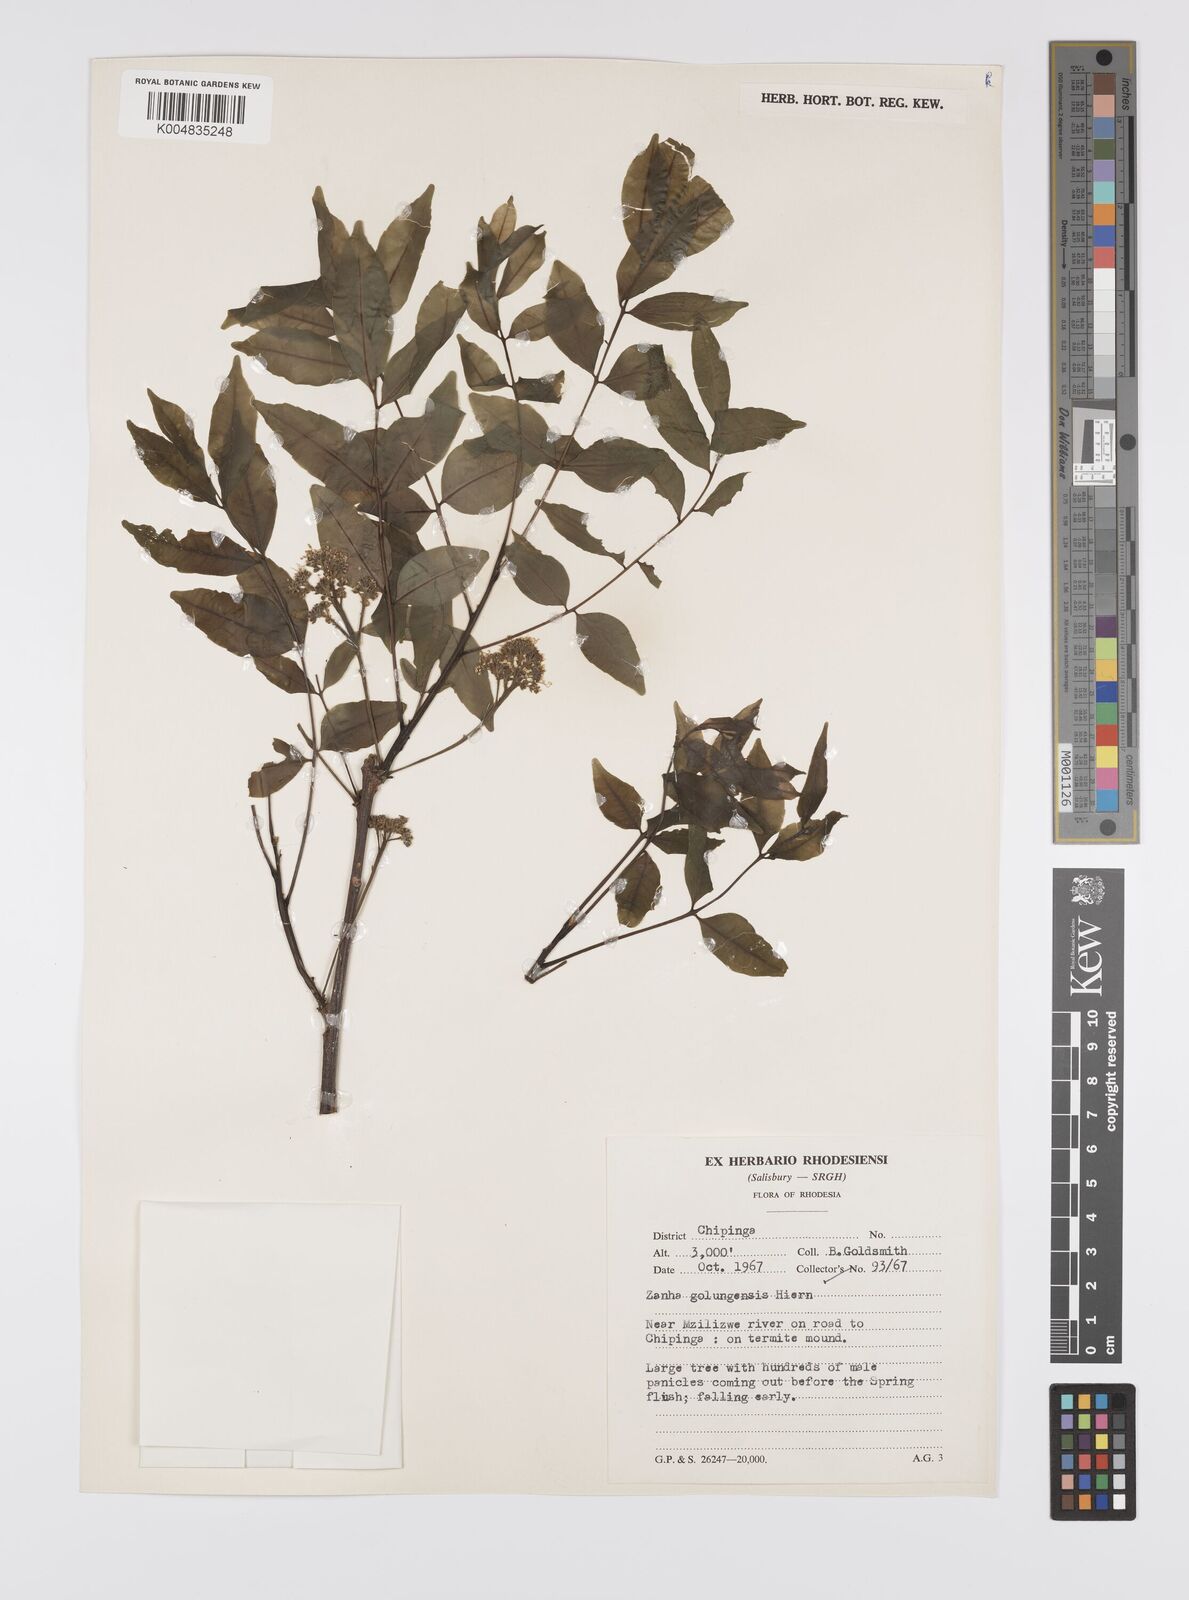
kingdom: Plantae
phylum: Tracheophyta
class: Magnoliopsida
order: Sapindales
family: Sapindaceae
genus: Zanha
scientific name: Zanha golungensis
